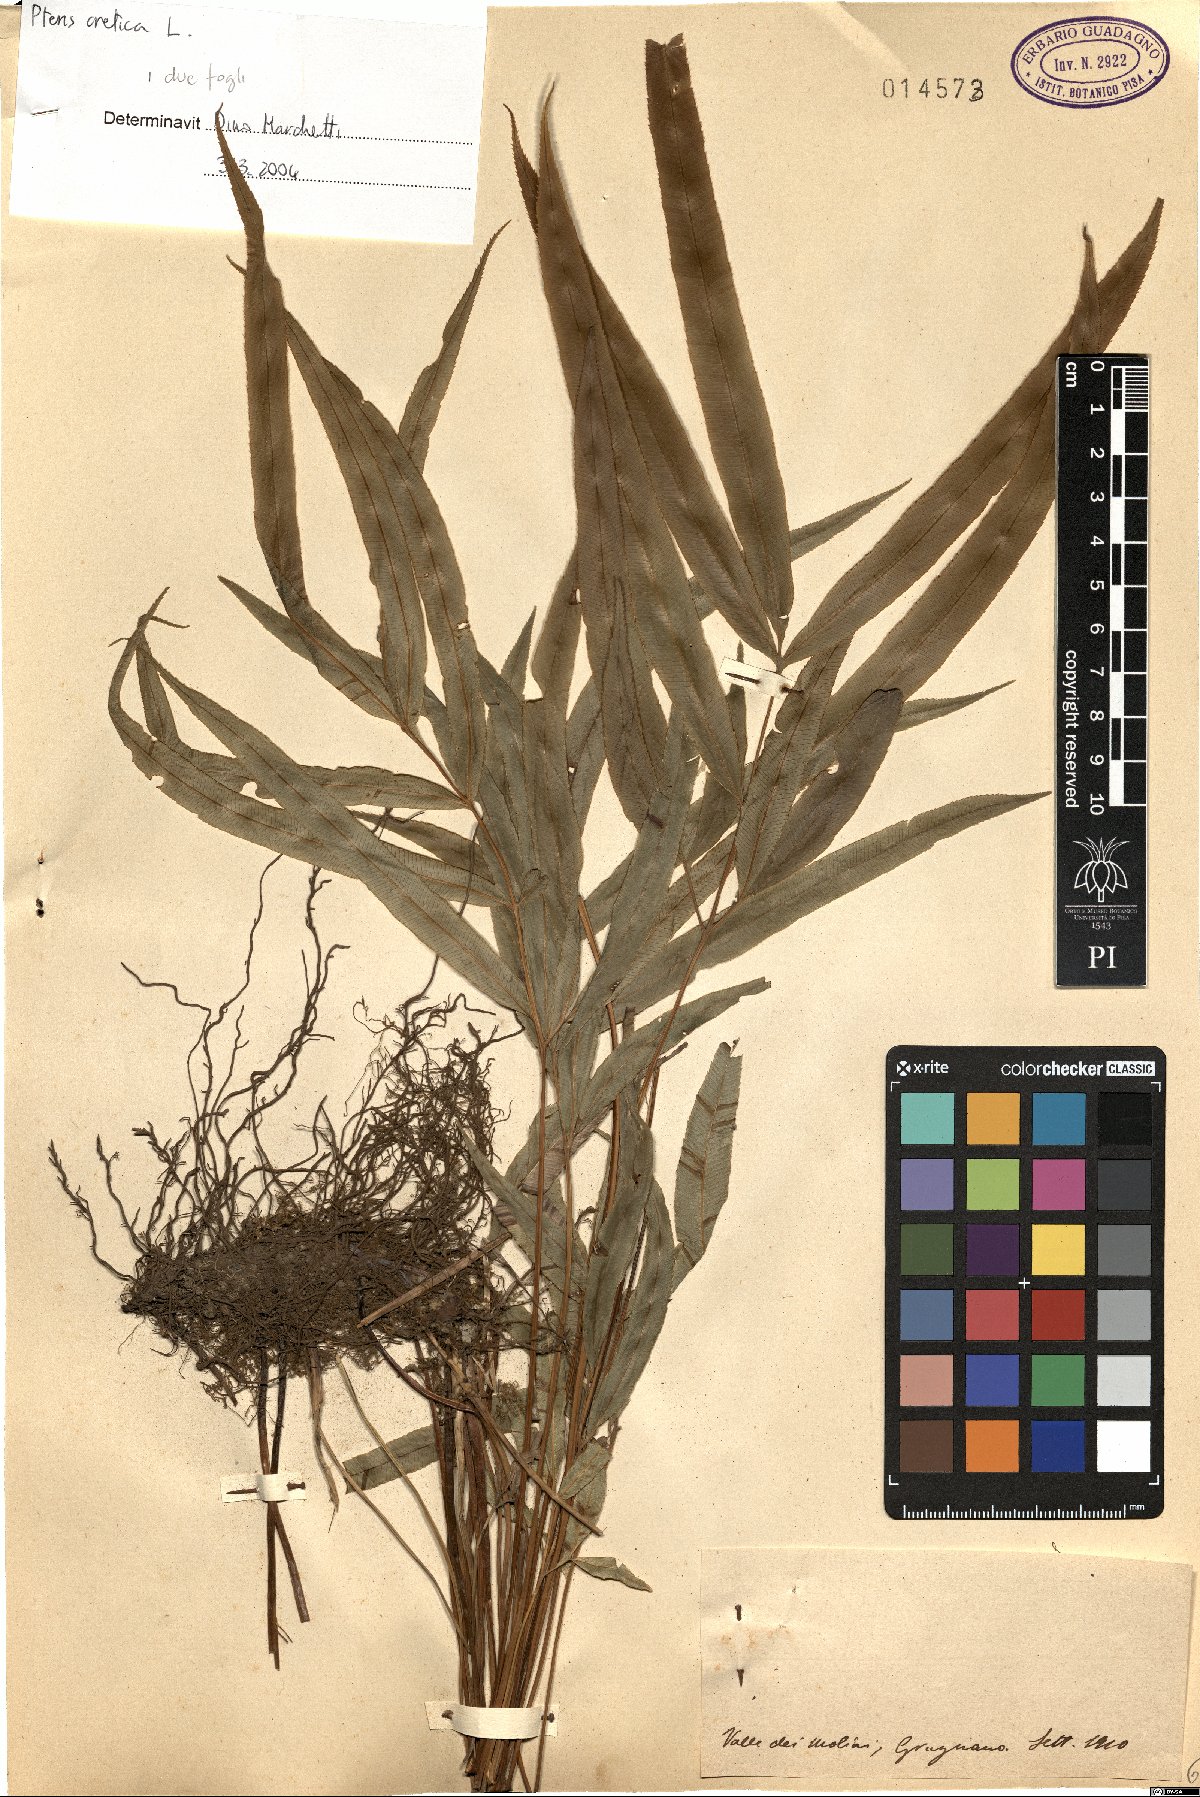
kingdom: Plantae
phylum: Tracheophyta
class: Polypodiopsida
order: Polypodiales
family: Pteridaceae
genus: Pteris
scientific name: Pteris cretica
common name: Ribbon fern
